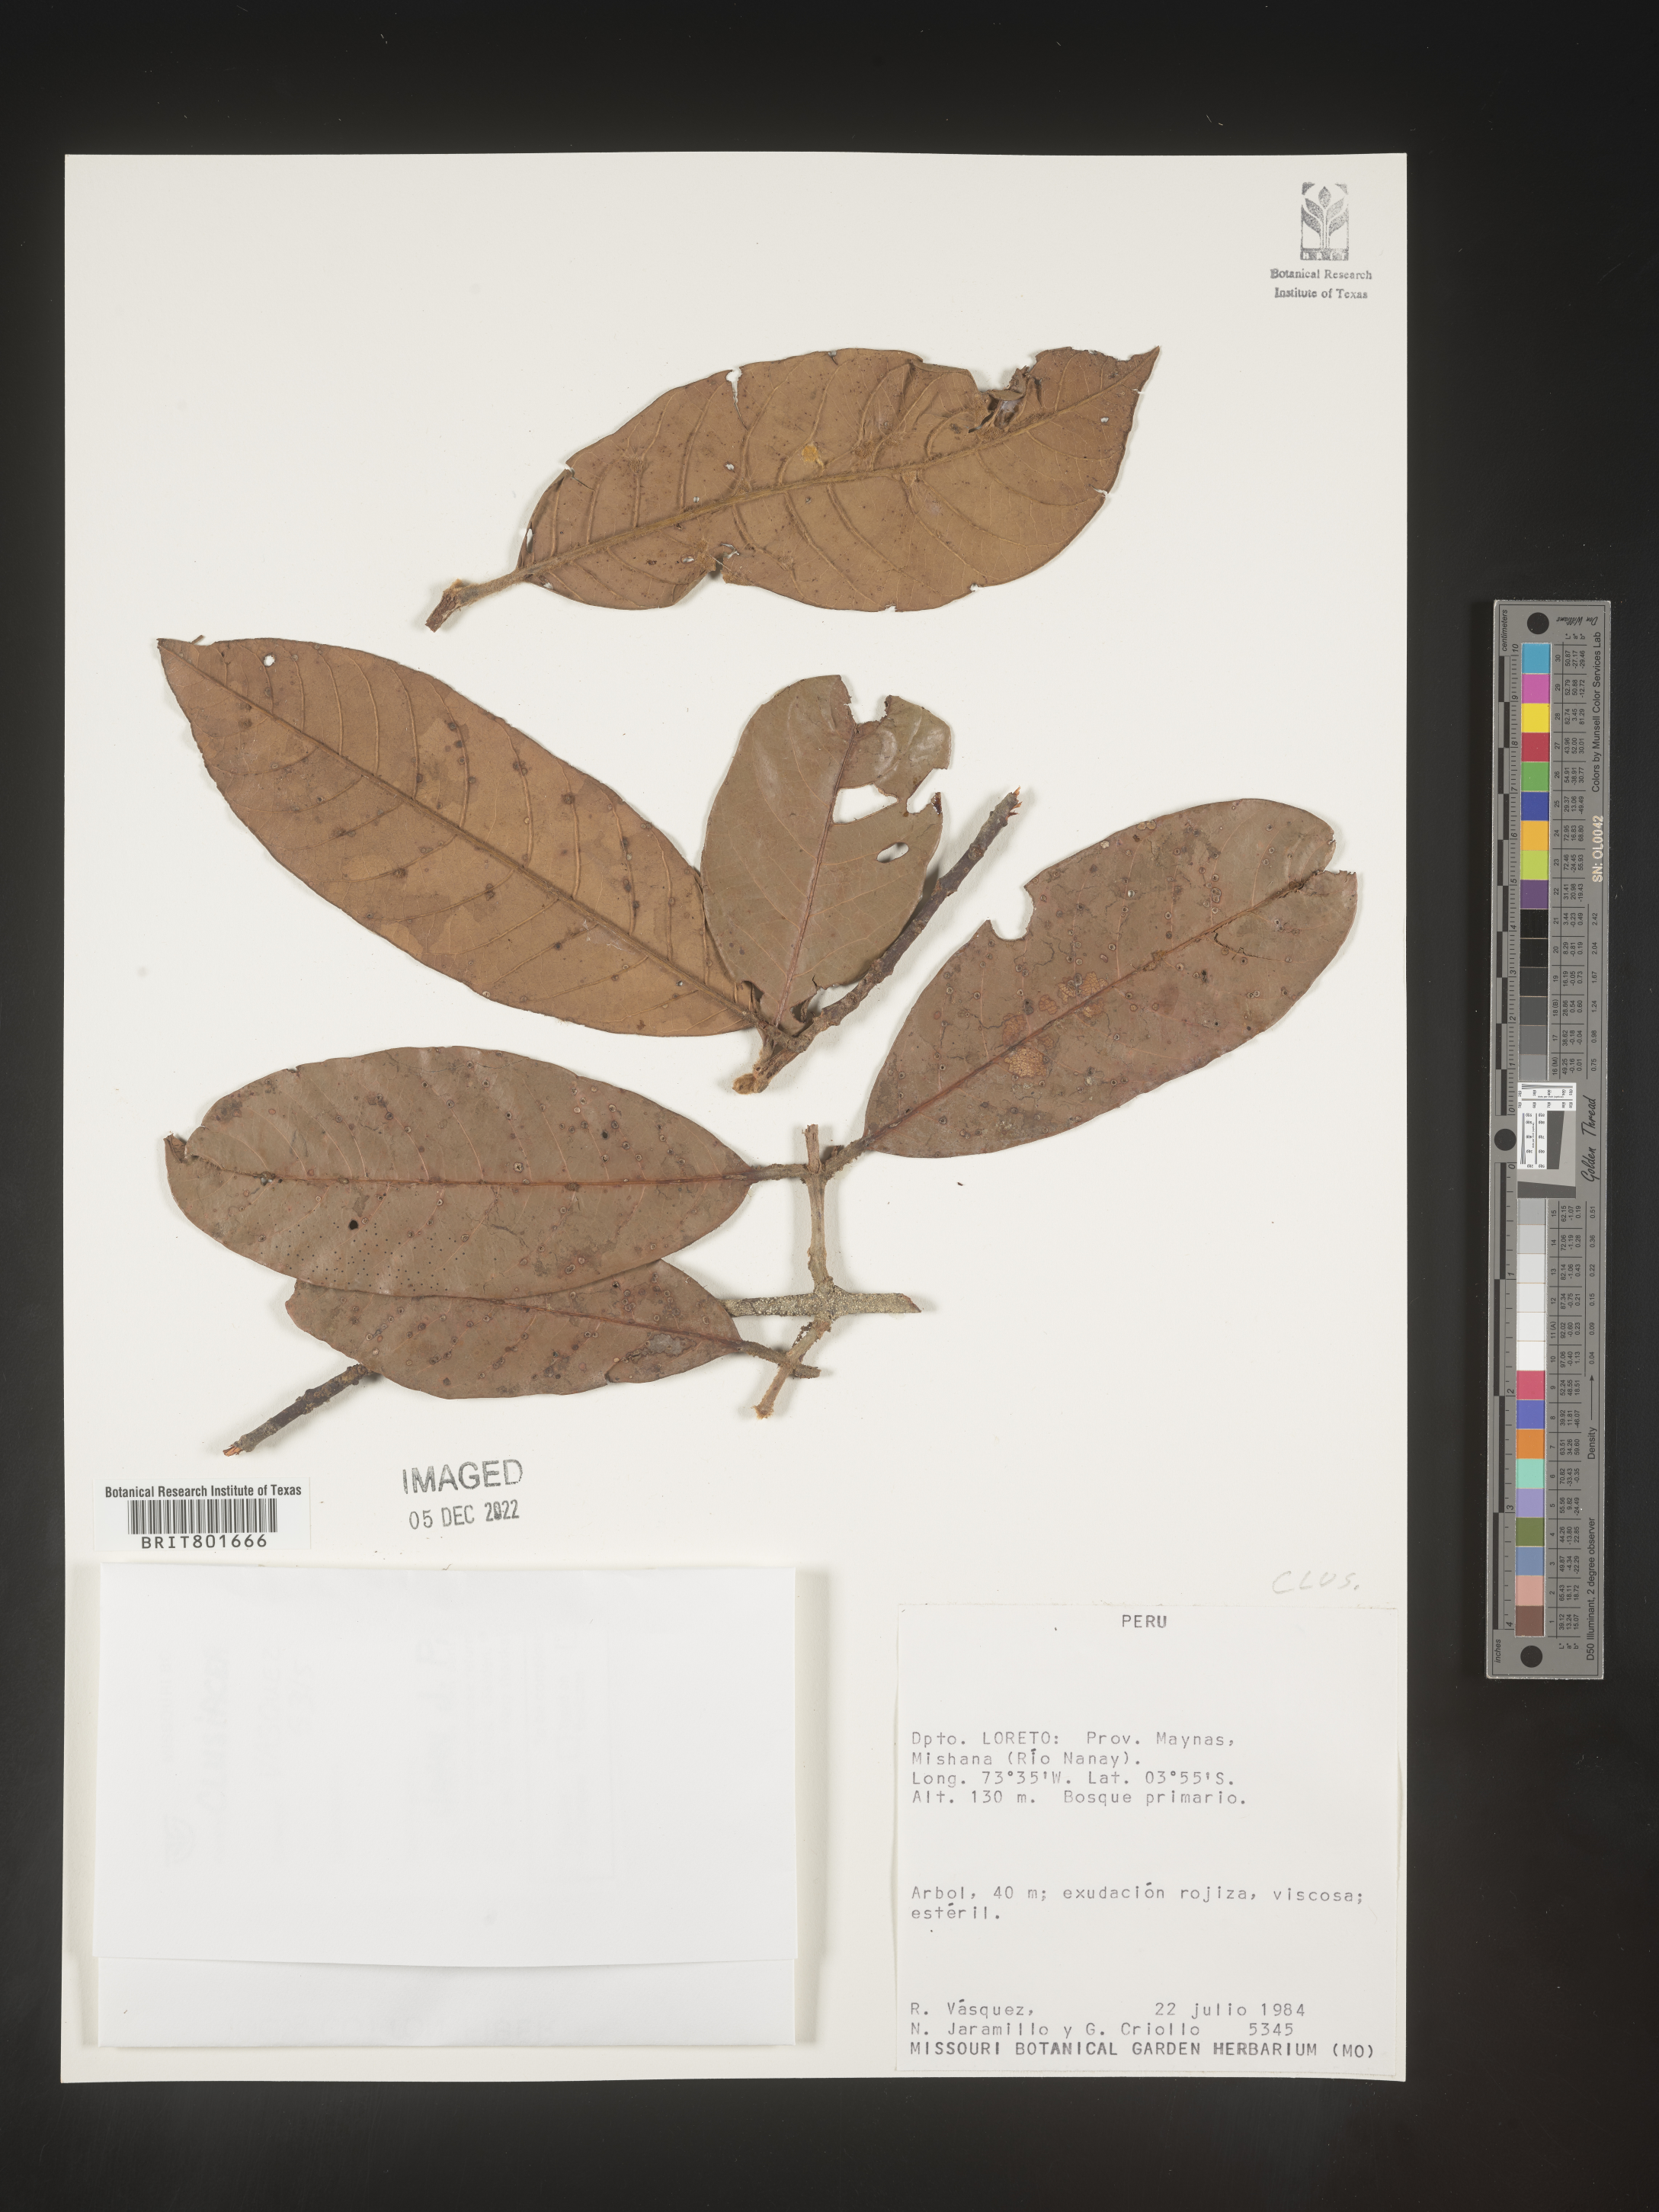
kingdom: Plantae
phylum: Tracheophyta
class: Magnoliopsida
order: Malpighiales
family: Clusiaceae
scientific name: Clusiaceae
